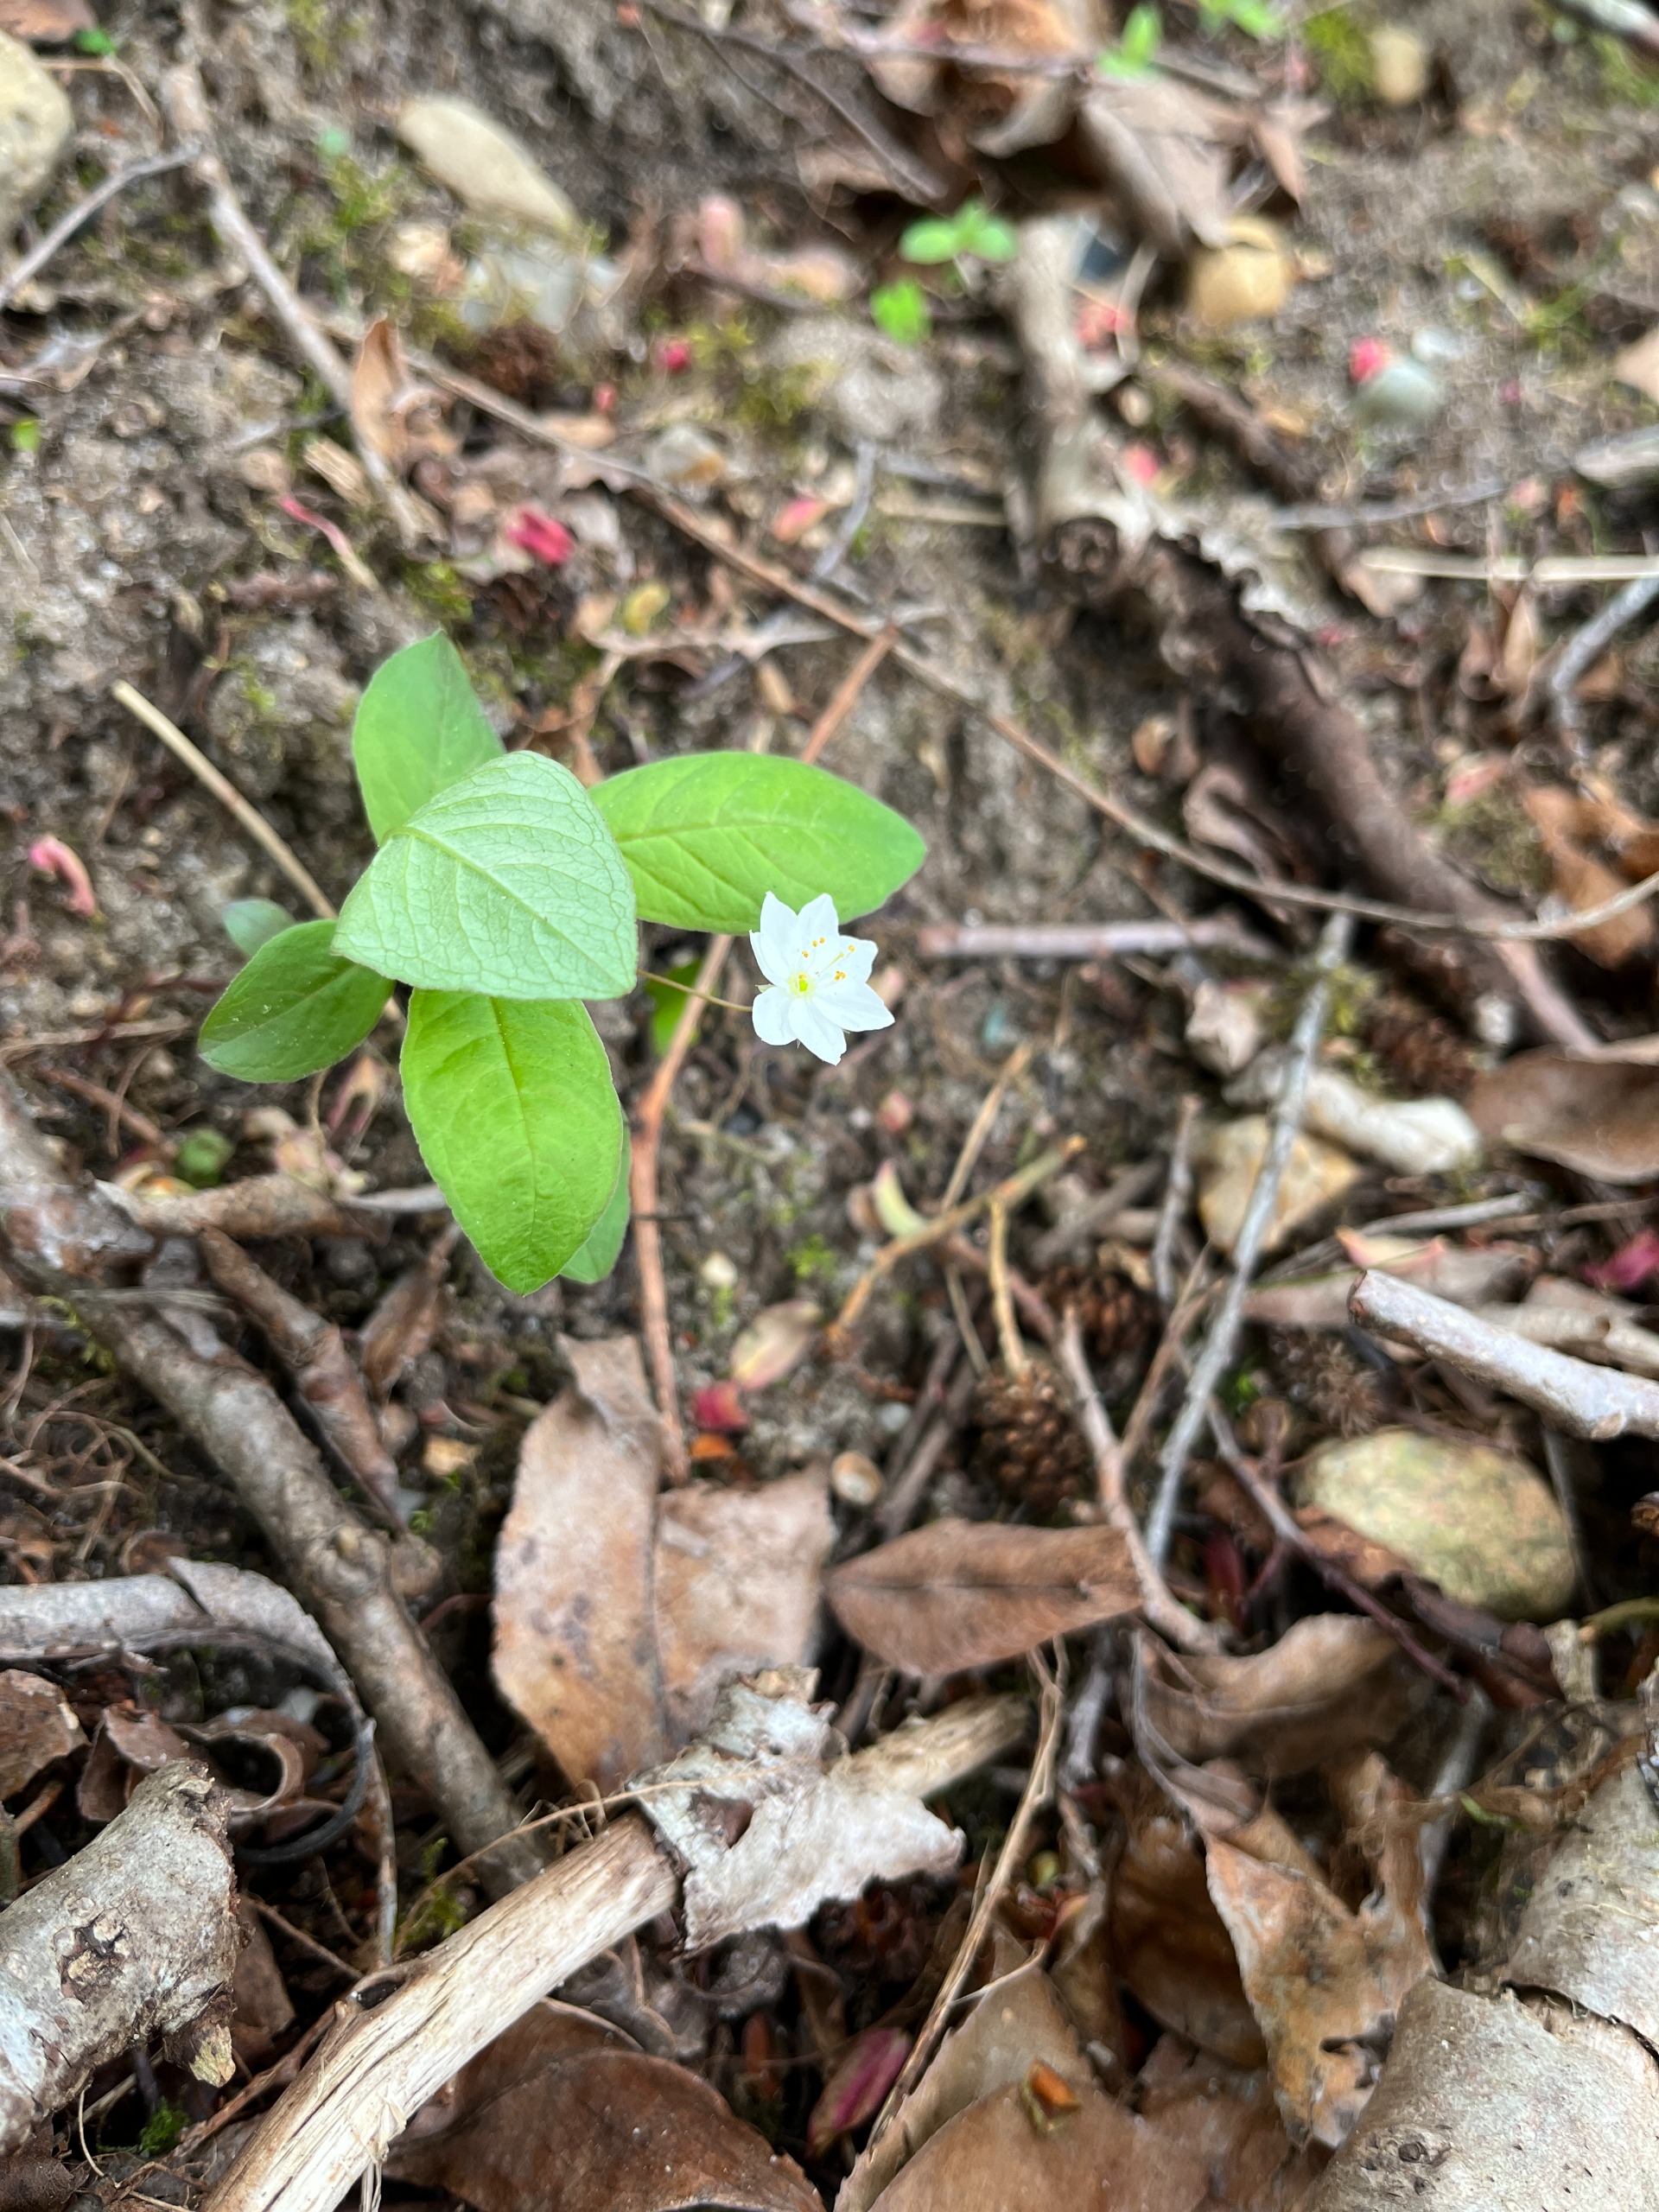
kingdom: Plantae
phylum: Tracheophyta
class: Magnoliopsida
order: Ericales
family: Primulaceae
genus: Lysimachia
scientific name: Lysimachia europaea
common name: Skovstjerne
